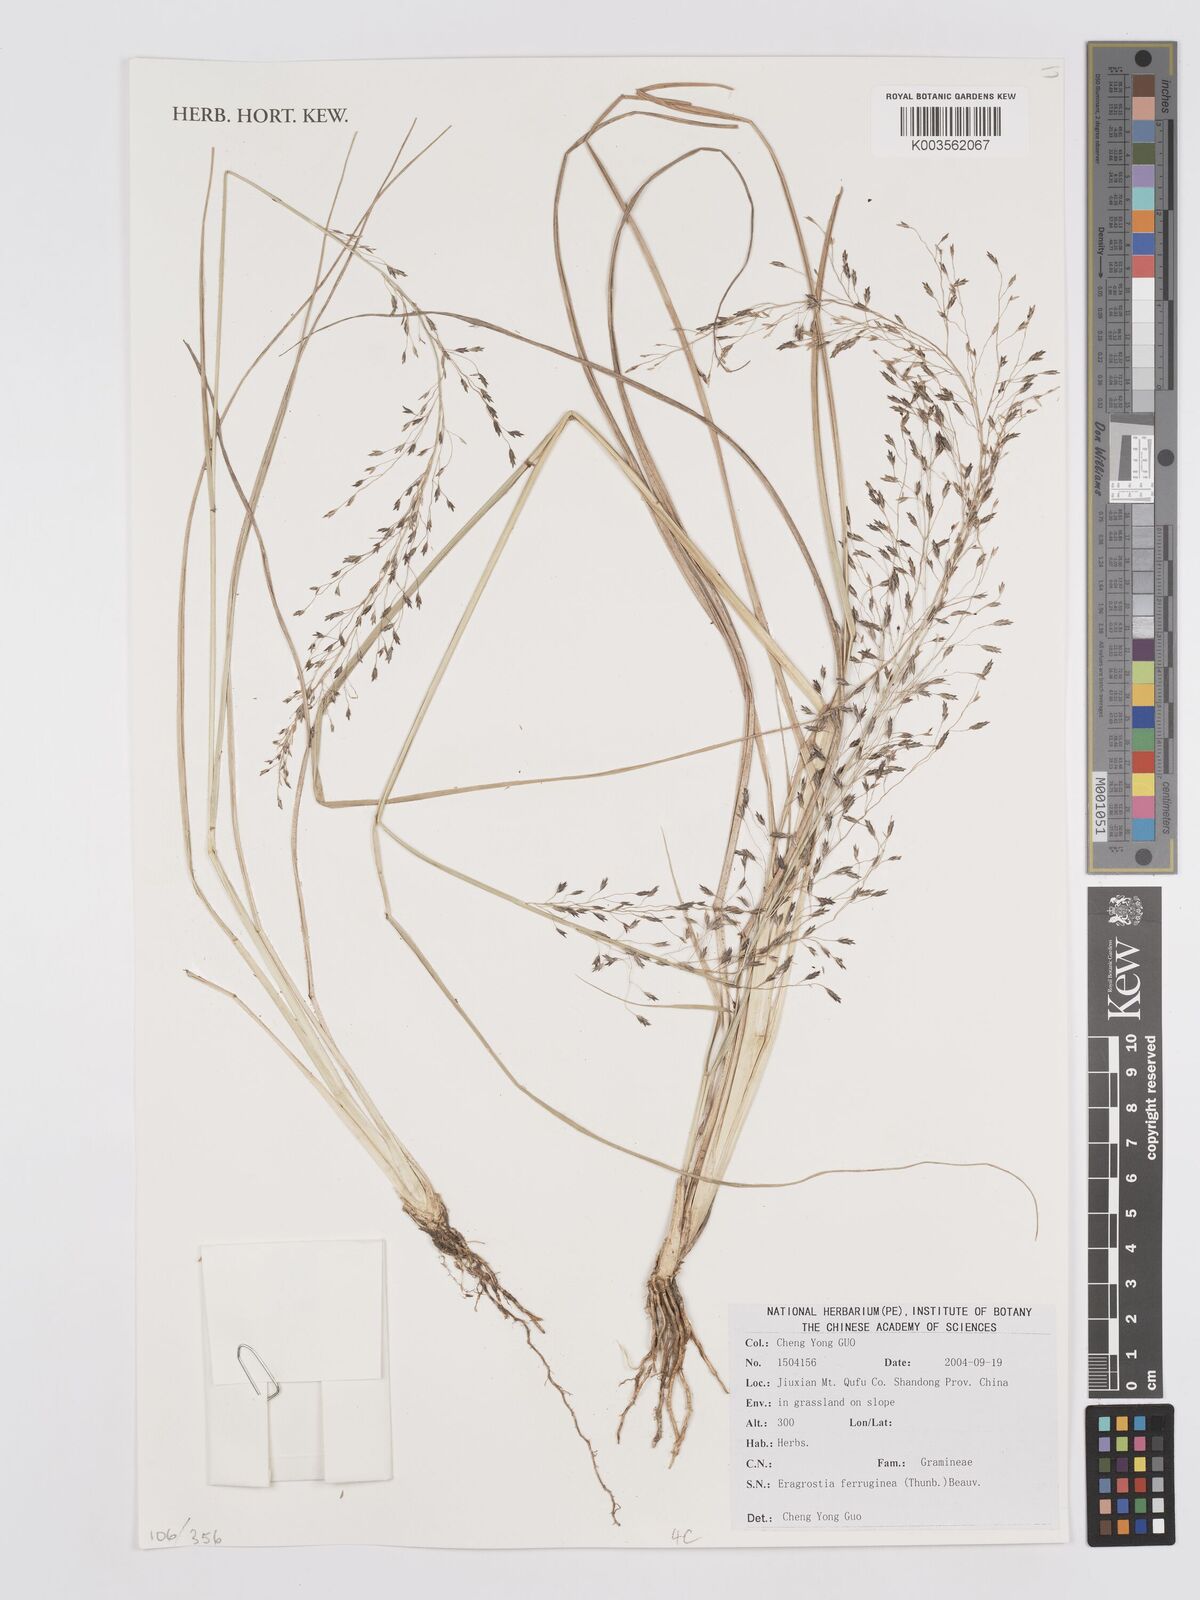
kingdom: Plantae
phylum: Tracheophyta
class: Liliopsida
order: Poales
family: Poaceae
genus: Eragrostis
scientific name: Eragrostis ferruginea
